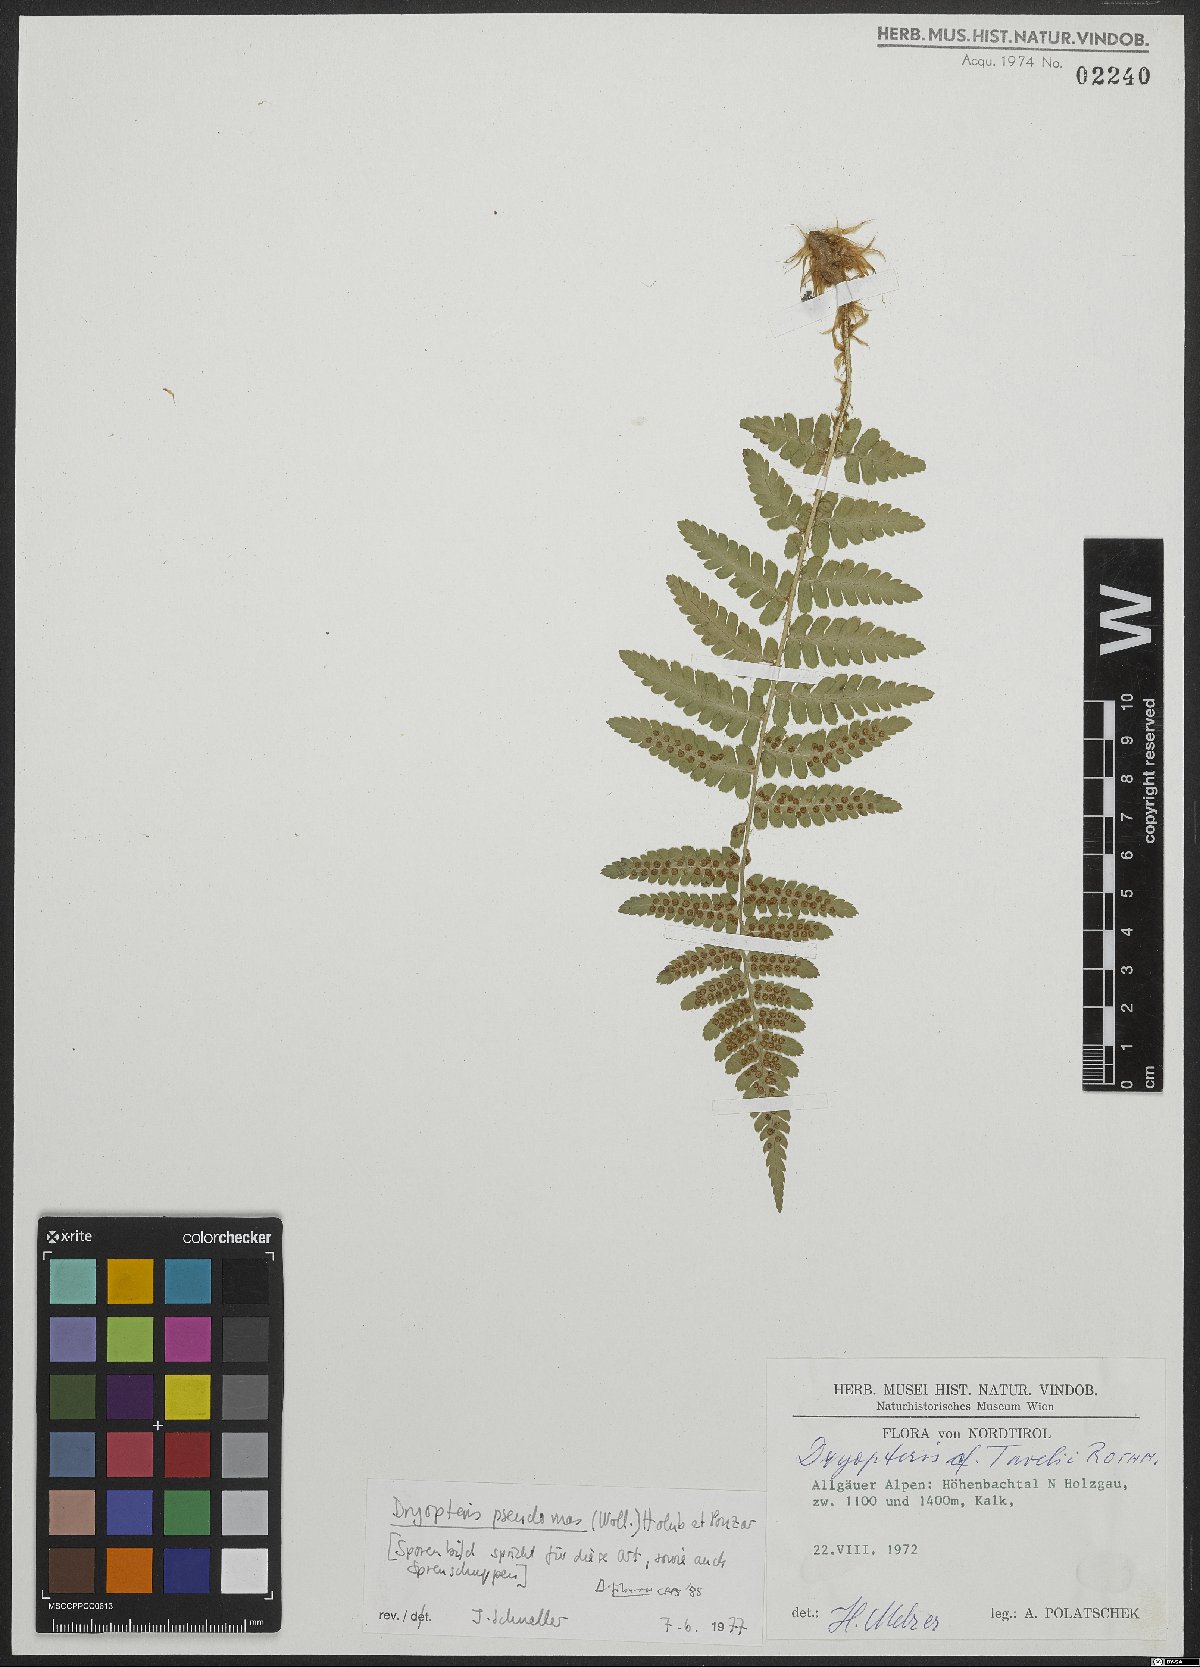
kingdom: Plantae
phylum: Tracheophyta
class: Polypodiopsida
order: Polypodiales
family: Dryopteridaceae
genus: Dryopteris
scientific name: Dryopteris borreri
